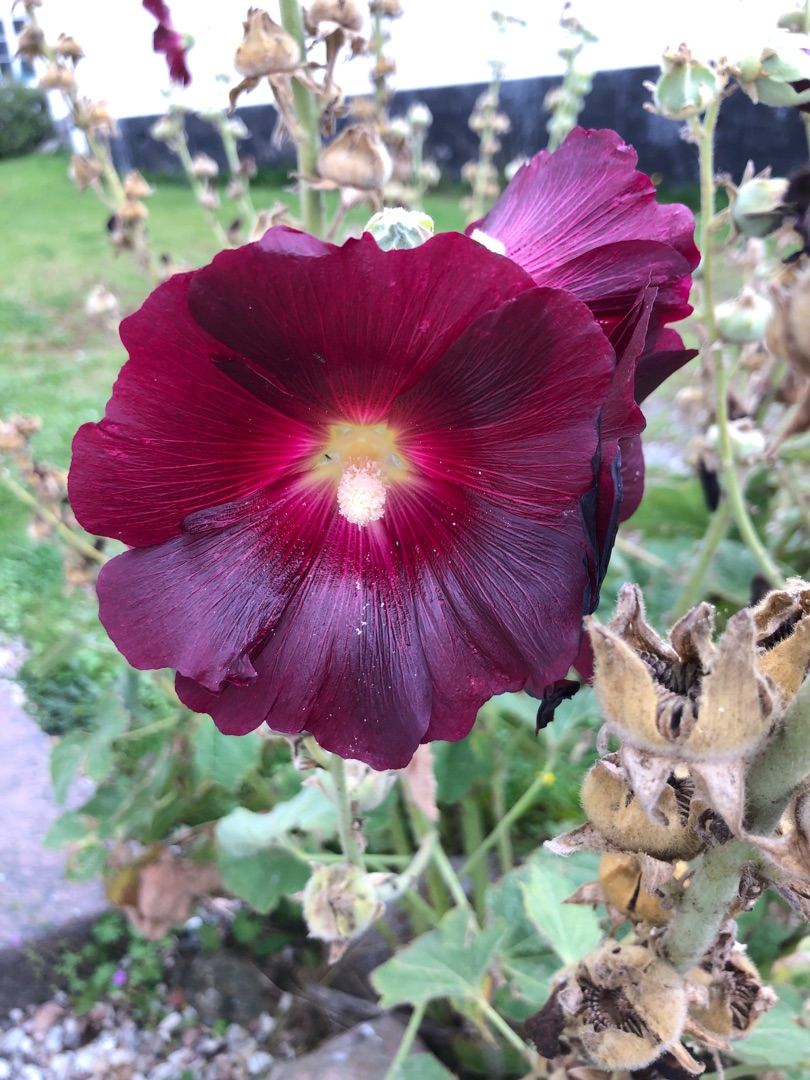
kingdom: Plantae
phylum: Tracheophyta
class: Magnoliopsida
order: Malvales
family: Malvaceae
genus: Alcea
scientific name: Alcea rosea
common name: Have-stokrose
